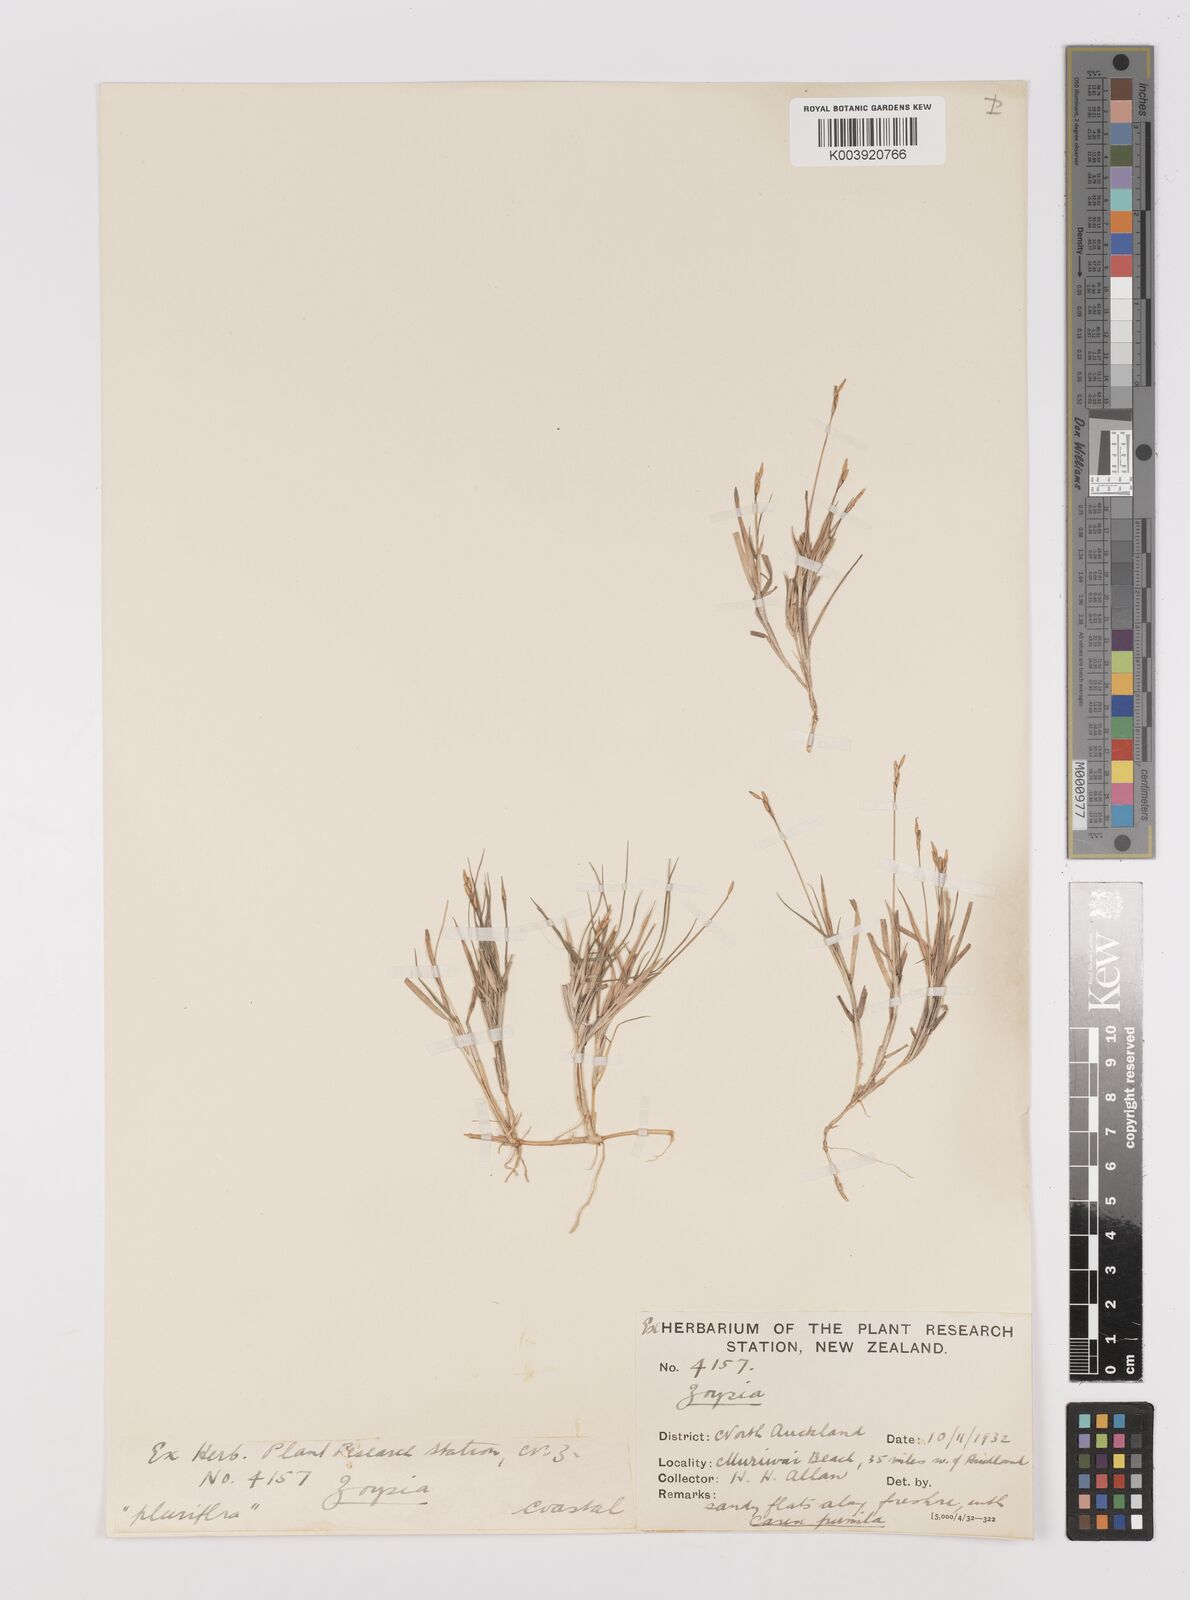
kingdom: Plantae
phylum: Tracheophyta
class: Liliopsida
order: Poales
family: Poaceae
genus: Zoysia
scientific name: Zoysia pauciflora
